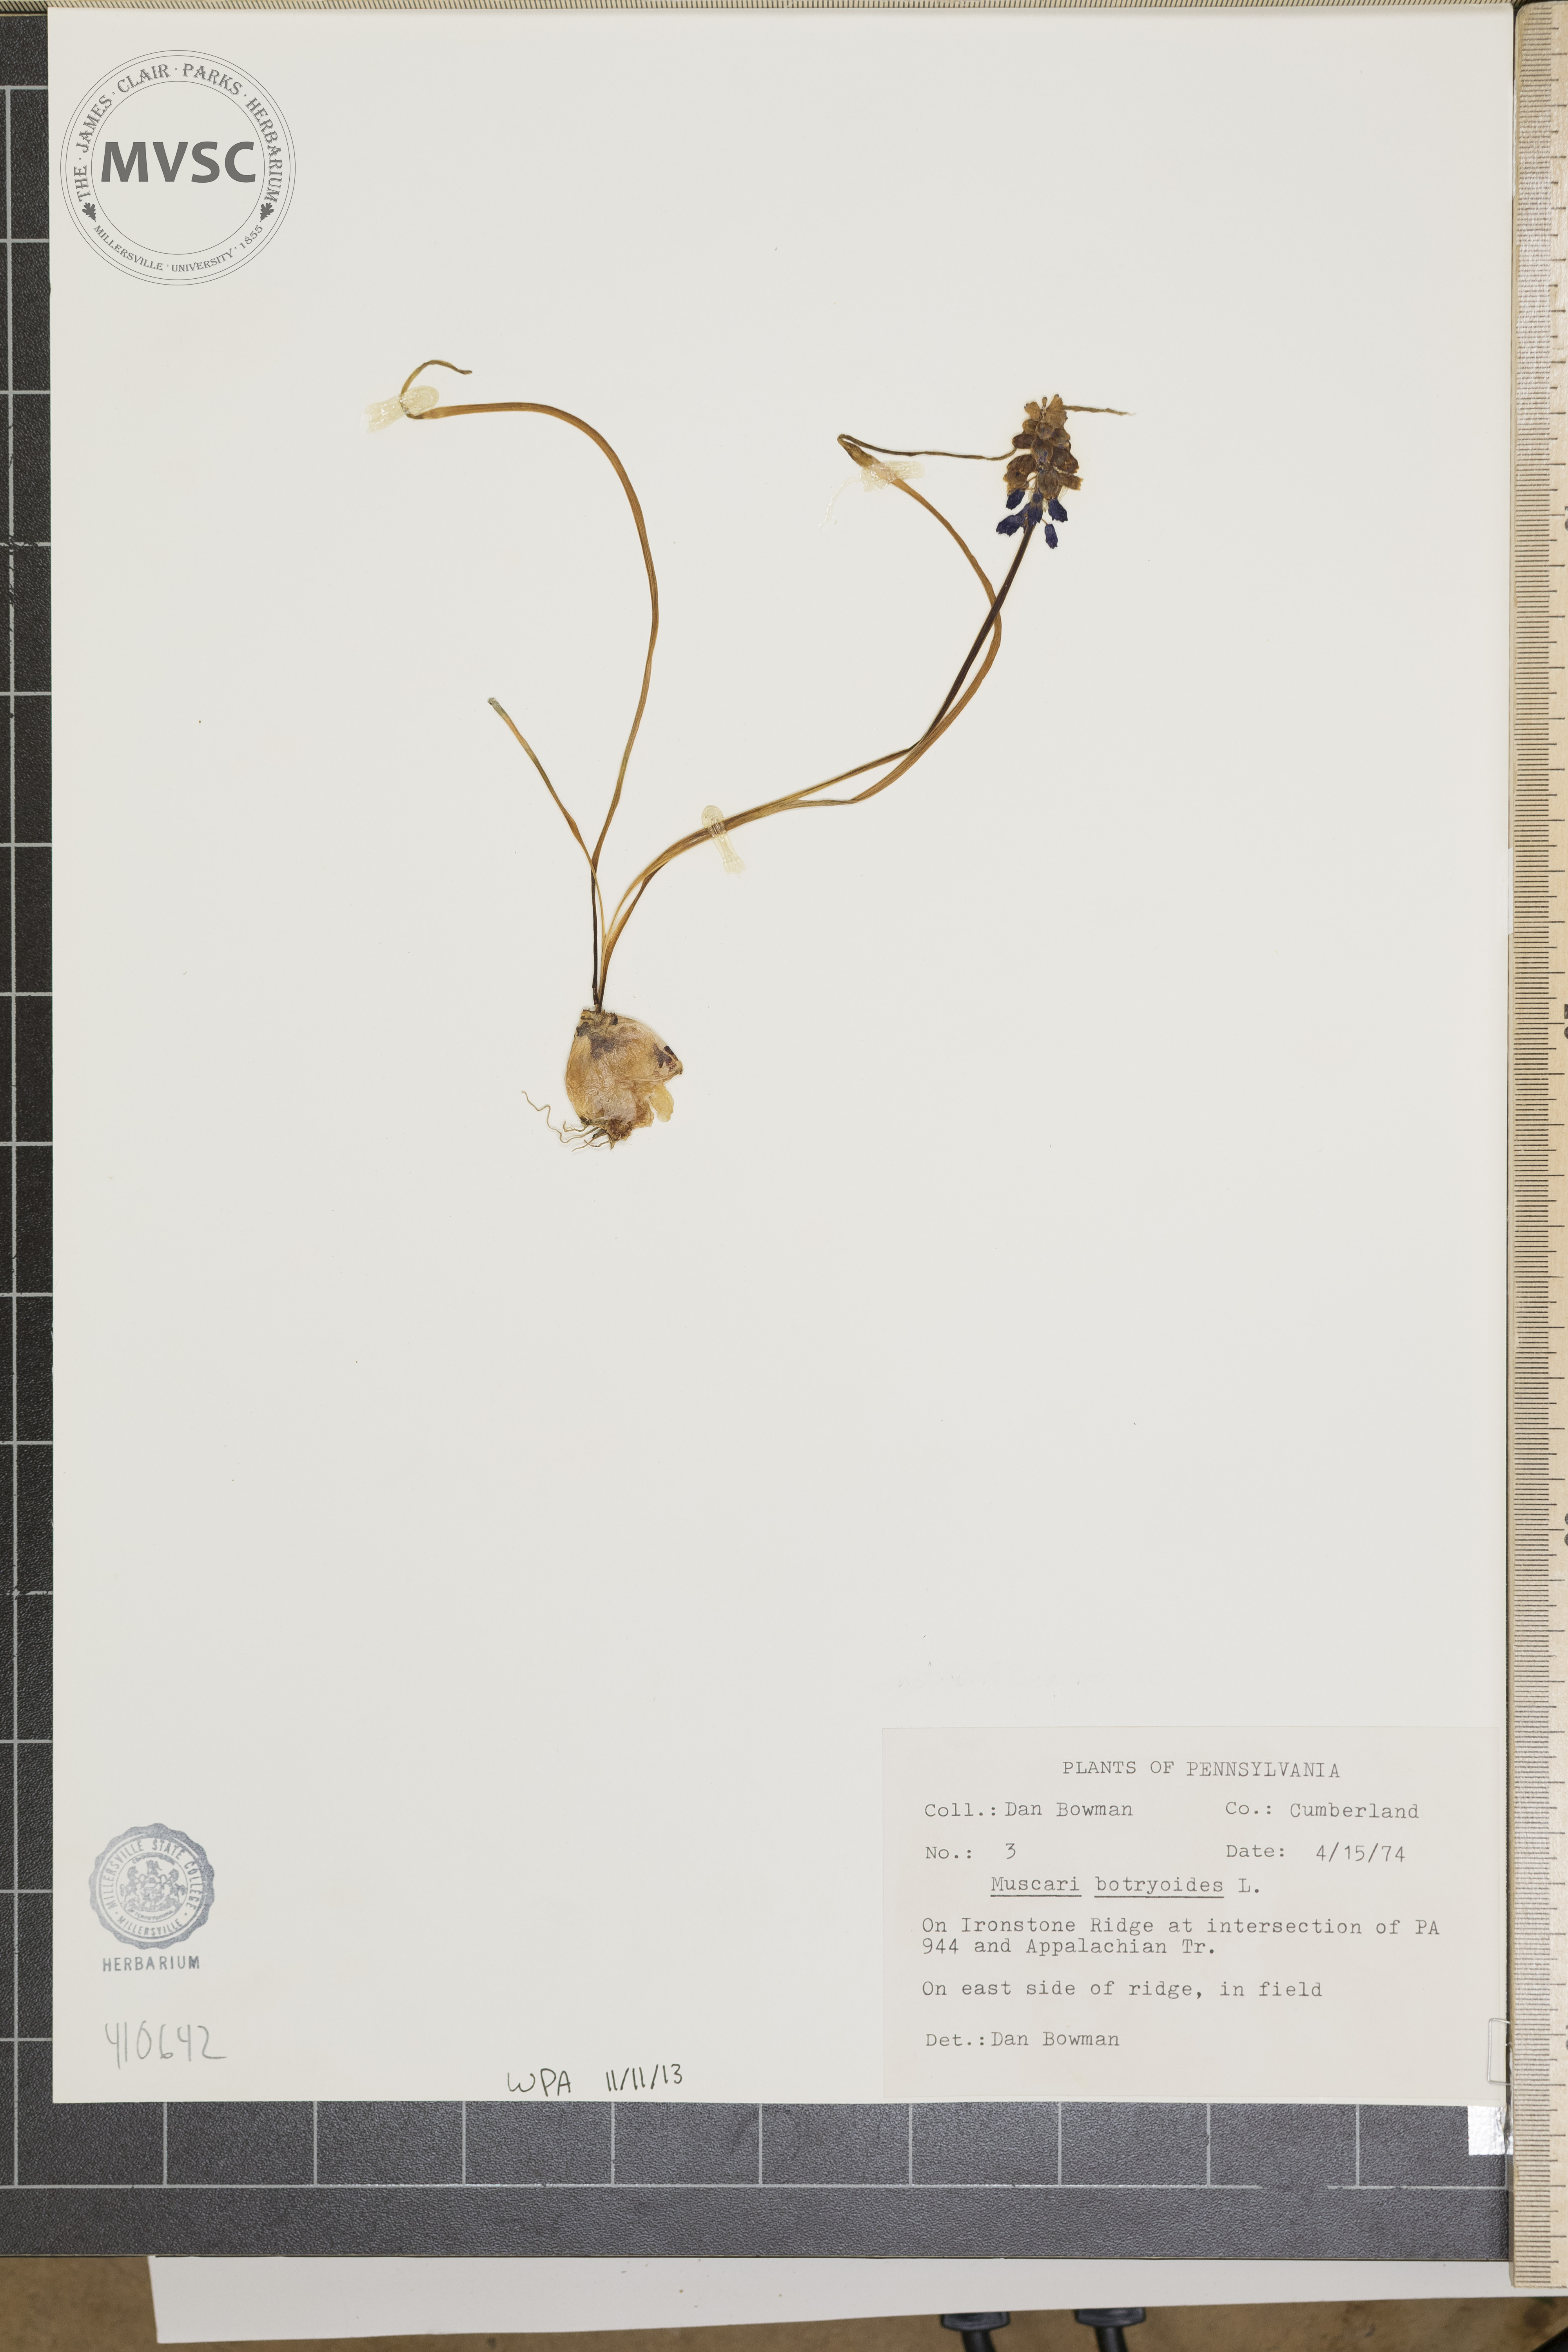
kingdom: Plantae
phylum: Tracheophyta
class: Liliopsida
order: Asparagales
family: Asparagaceae
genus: Muscari
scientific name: Muscari botryoides
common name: Compact grape-hyacinth
